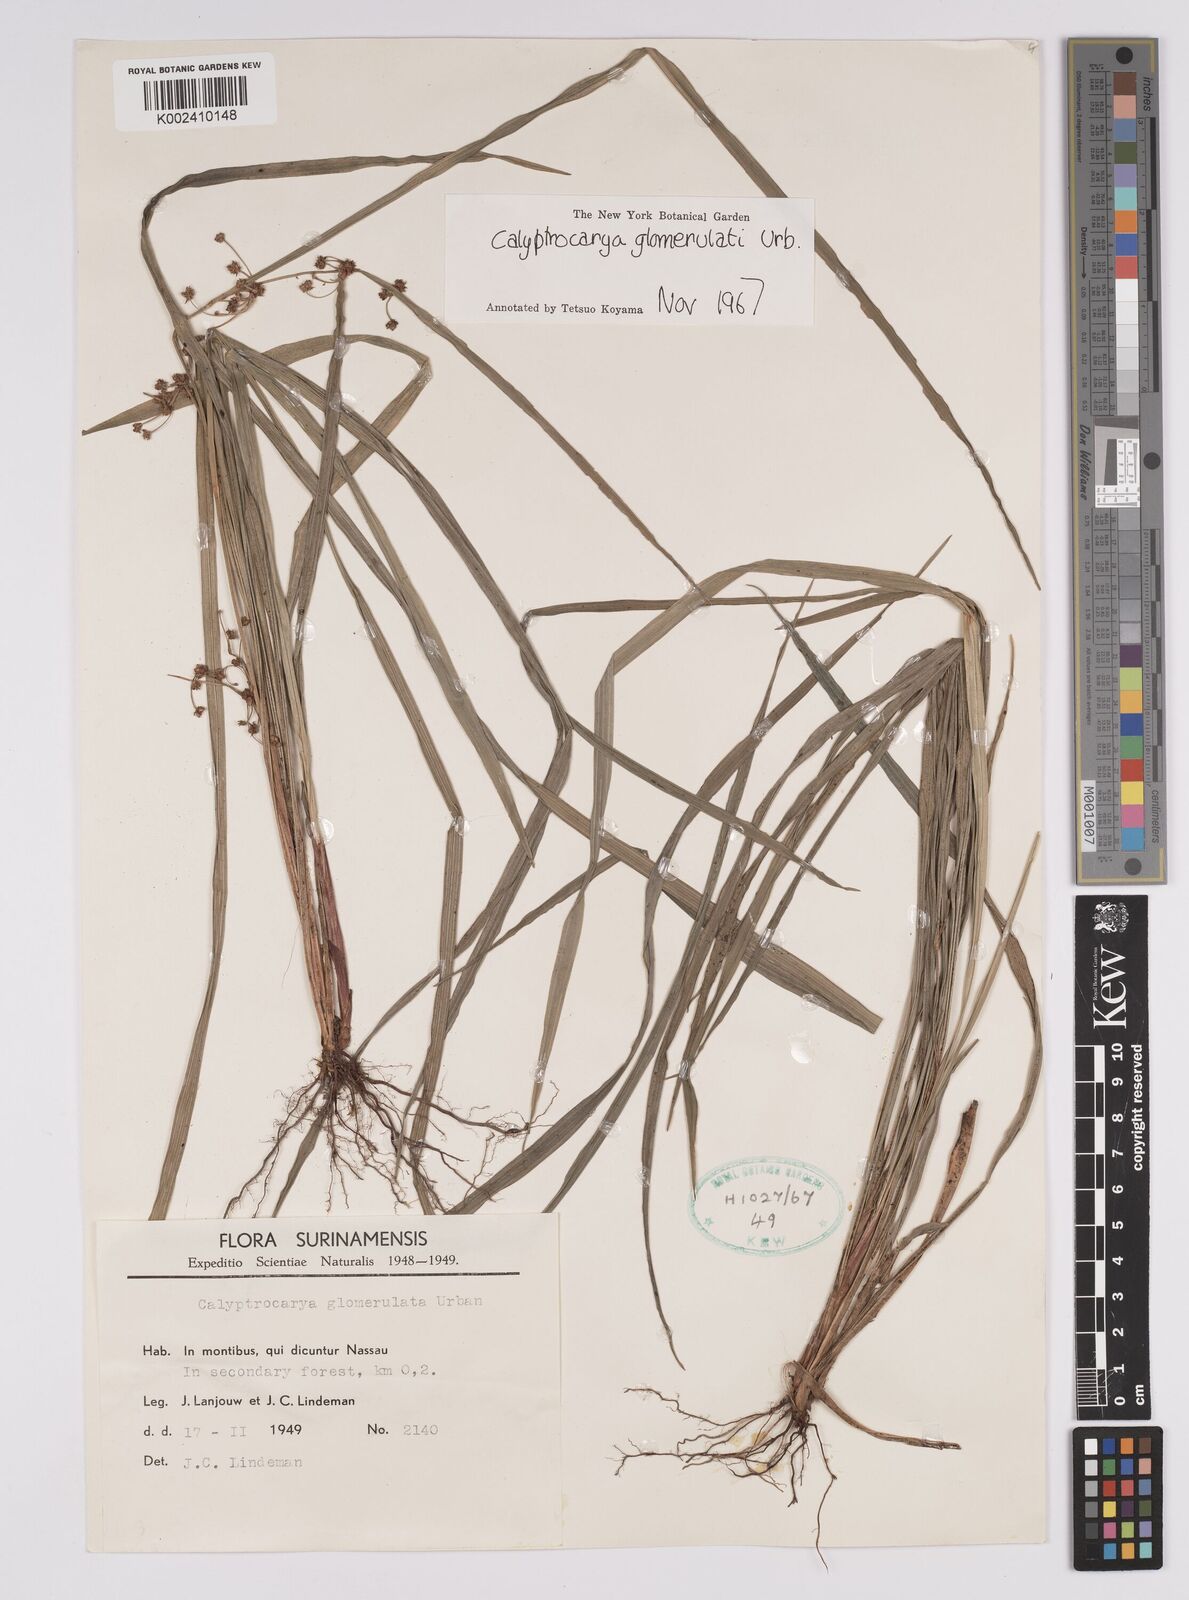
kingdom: Plantae
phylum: Tracheophyta
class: Liliopsida
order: Poales
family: Cyperaceae
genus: Calyptrocarya
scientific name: Calyptrocarya glomerulata
